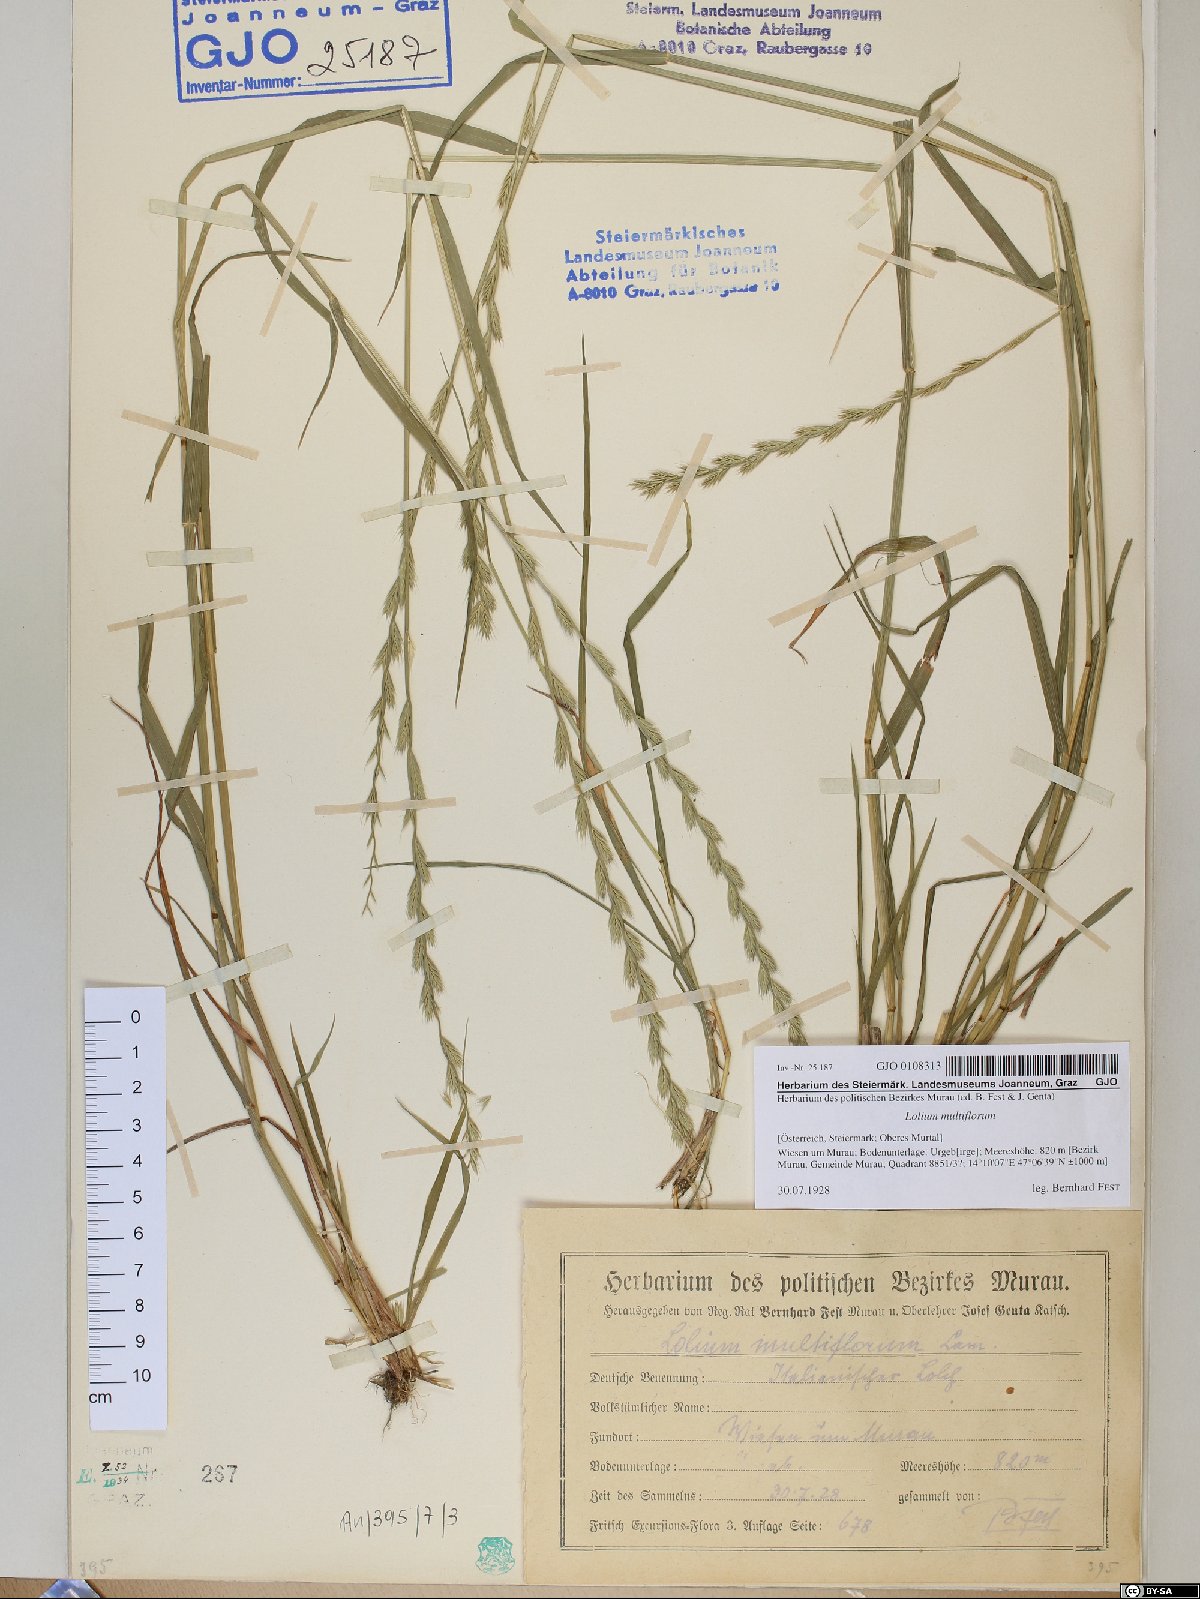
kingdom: Plantae
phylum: Tracheophyta
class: Liliopsida
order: Poales
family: Poaceae
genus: Lolium
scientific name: Lolium multiflorum
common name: Annual ryegrass
